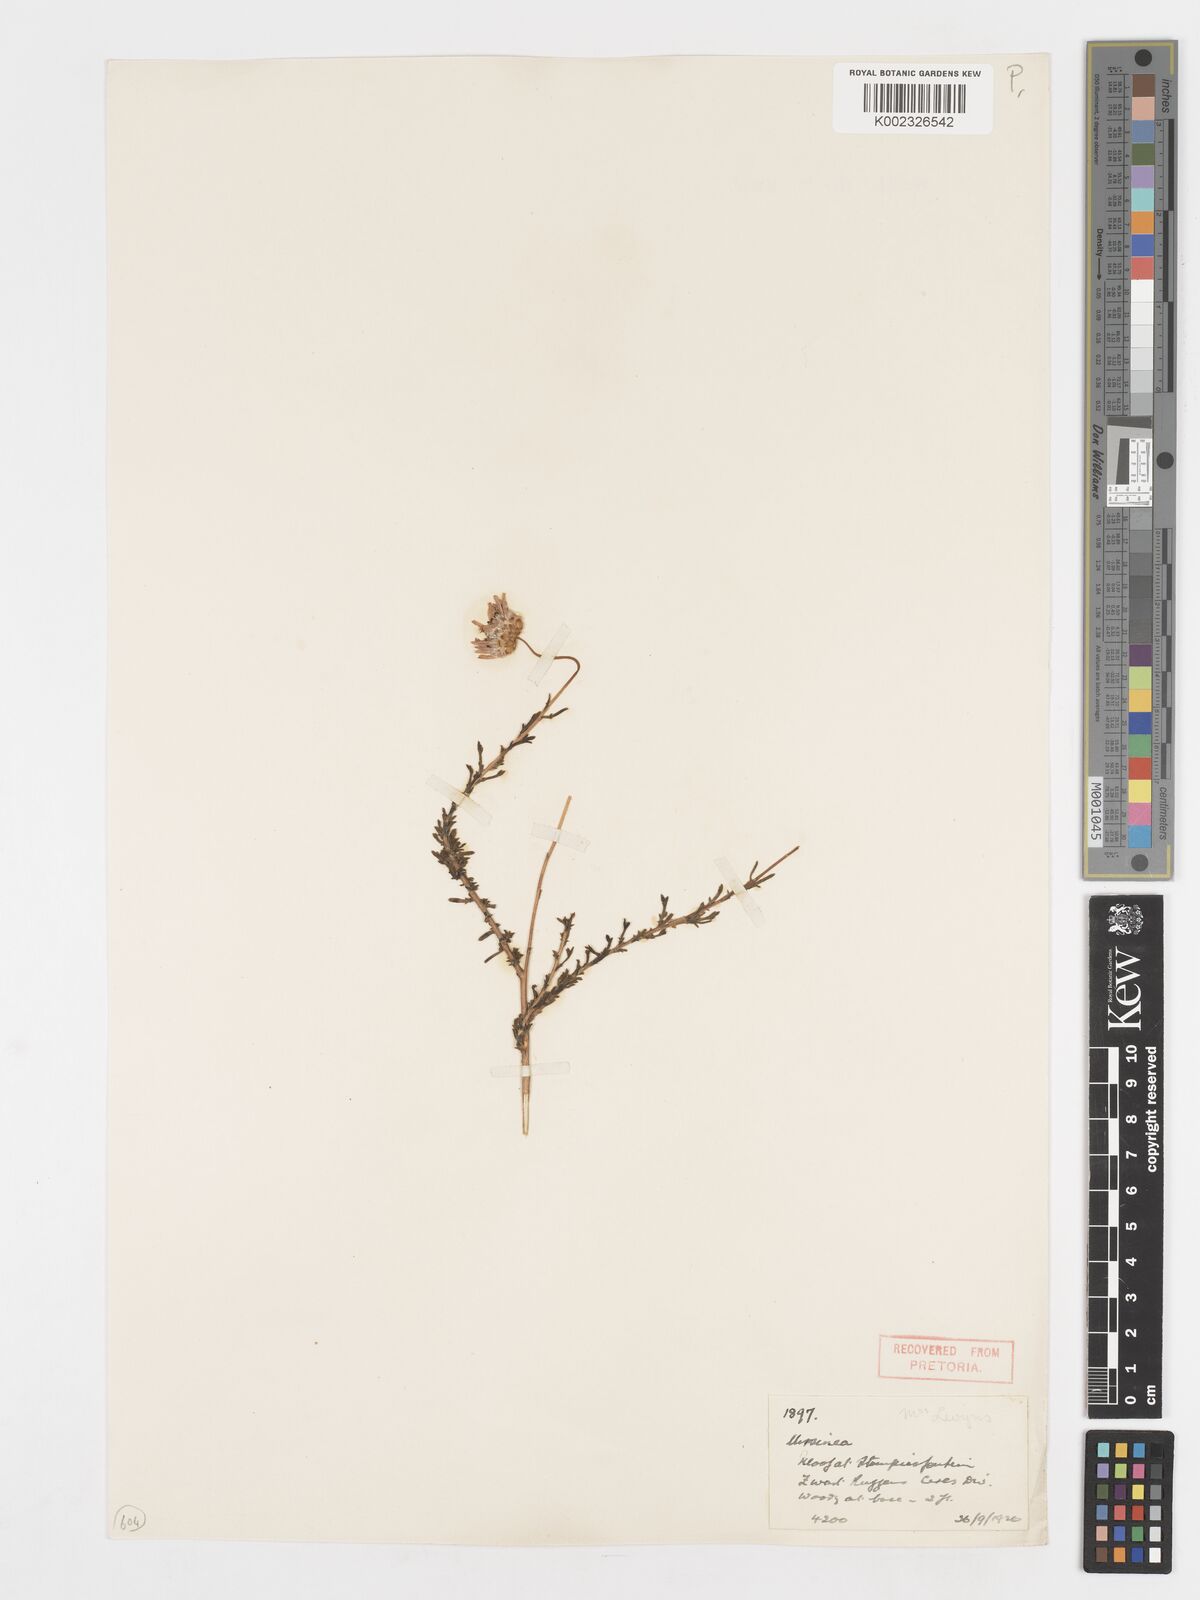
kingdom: Plantae
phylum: Tracheophyta
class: Magnoliopsida
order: Asterales
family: Asteraceae
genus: Ursinia
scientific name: Ursinia anethoides
